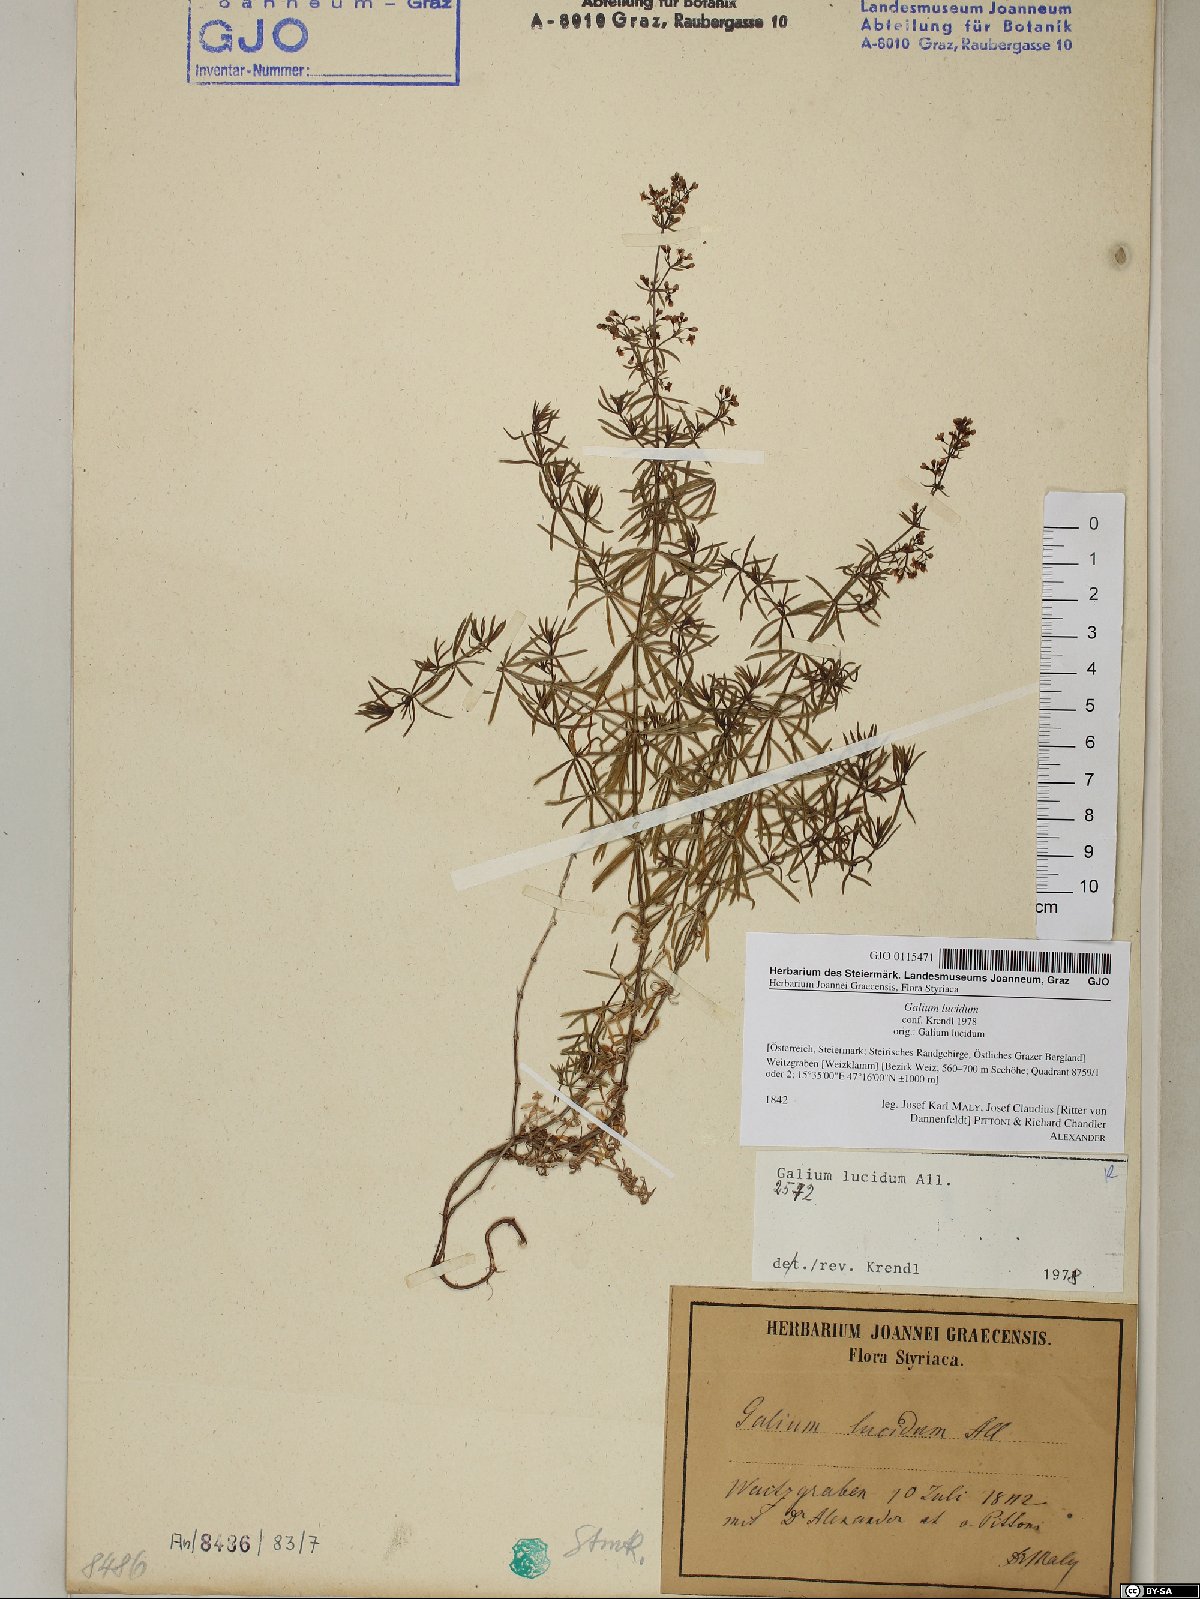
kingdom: Plantae
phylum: Tracheophyta
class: Magnoliopsida
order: Gentianales
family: Rubiaceae
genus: Galium
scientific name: Galium lucidum
